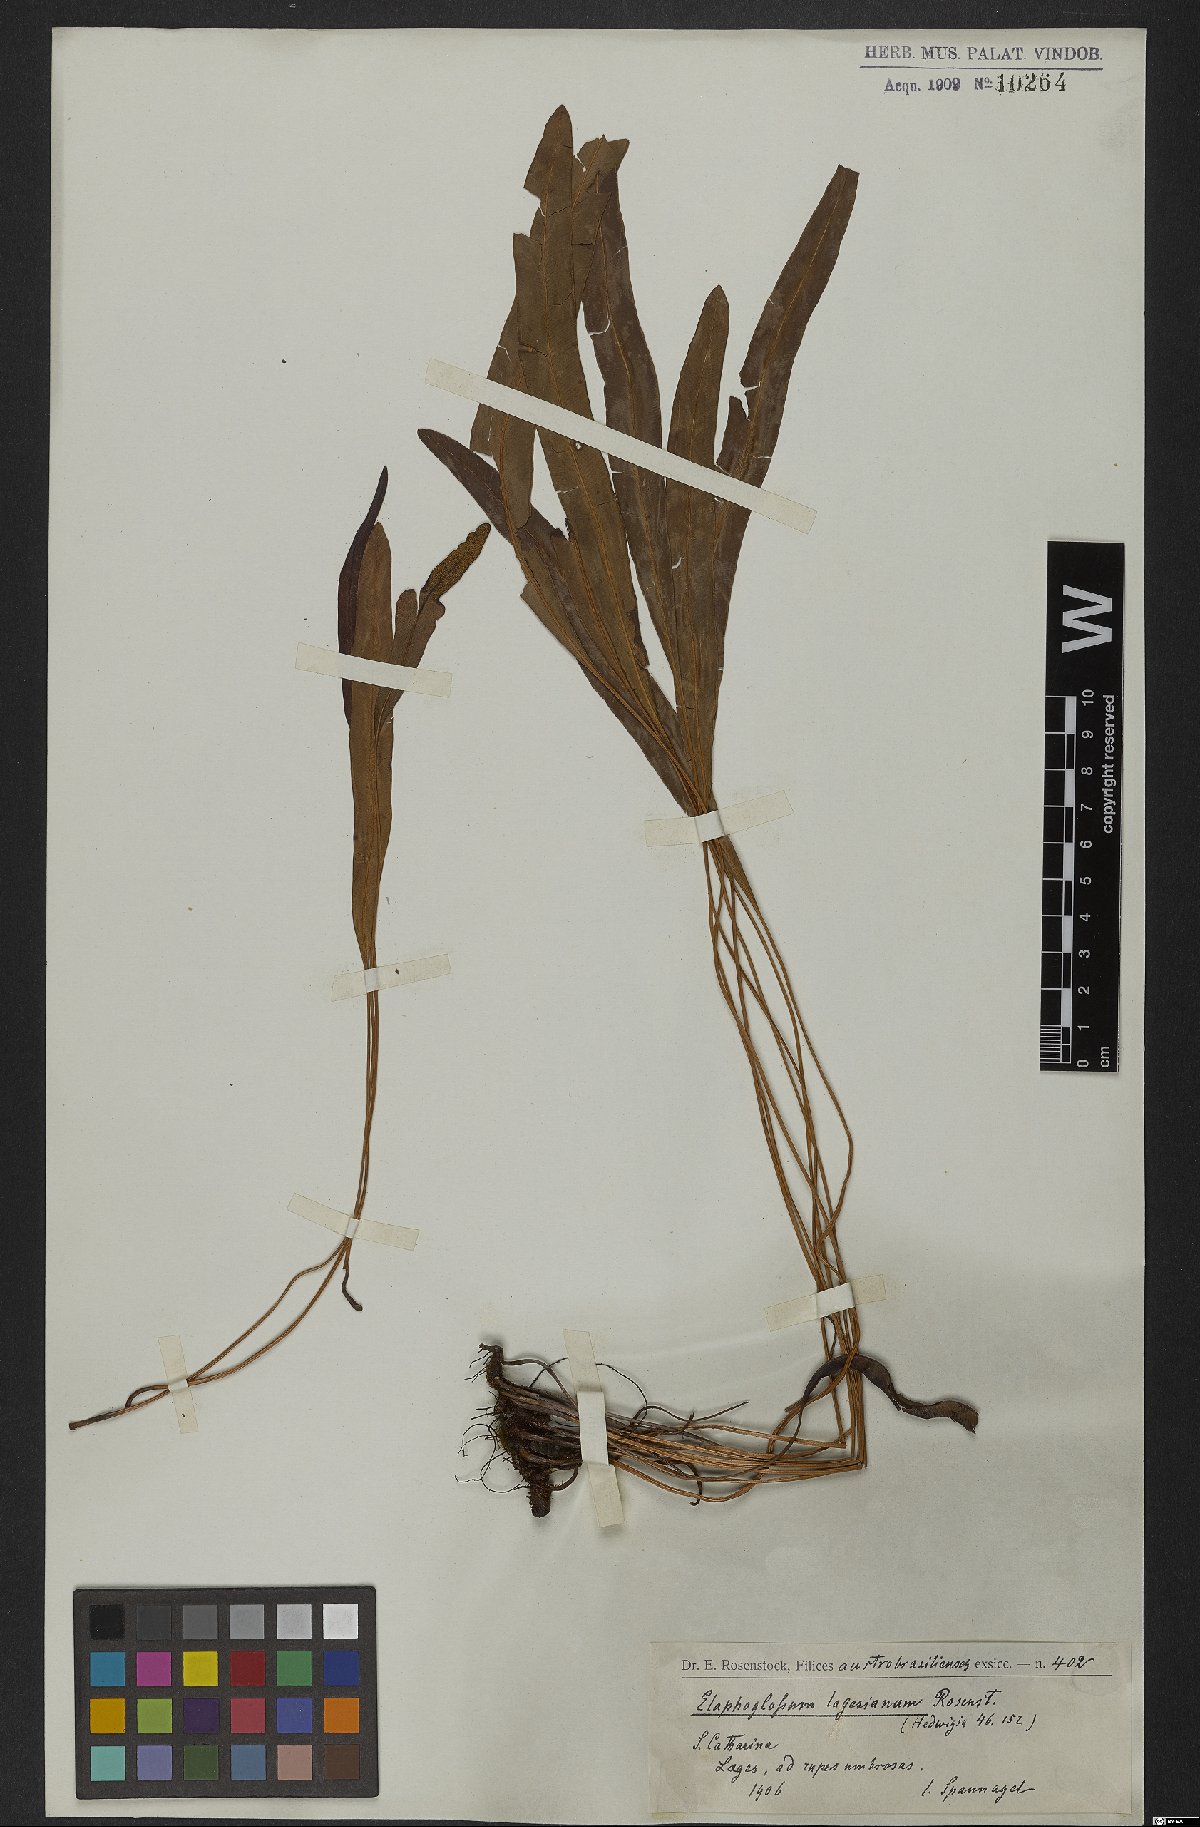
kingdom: Plantae
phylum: Tracheophyta
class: Polypodiopsida
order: Polypodiales
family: Dryopteridaceae
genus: Elaphoglossum
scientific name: Elaphoglossum lagesianum
